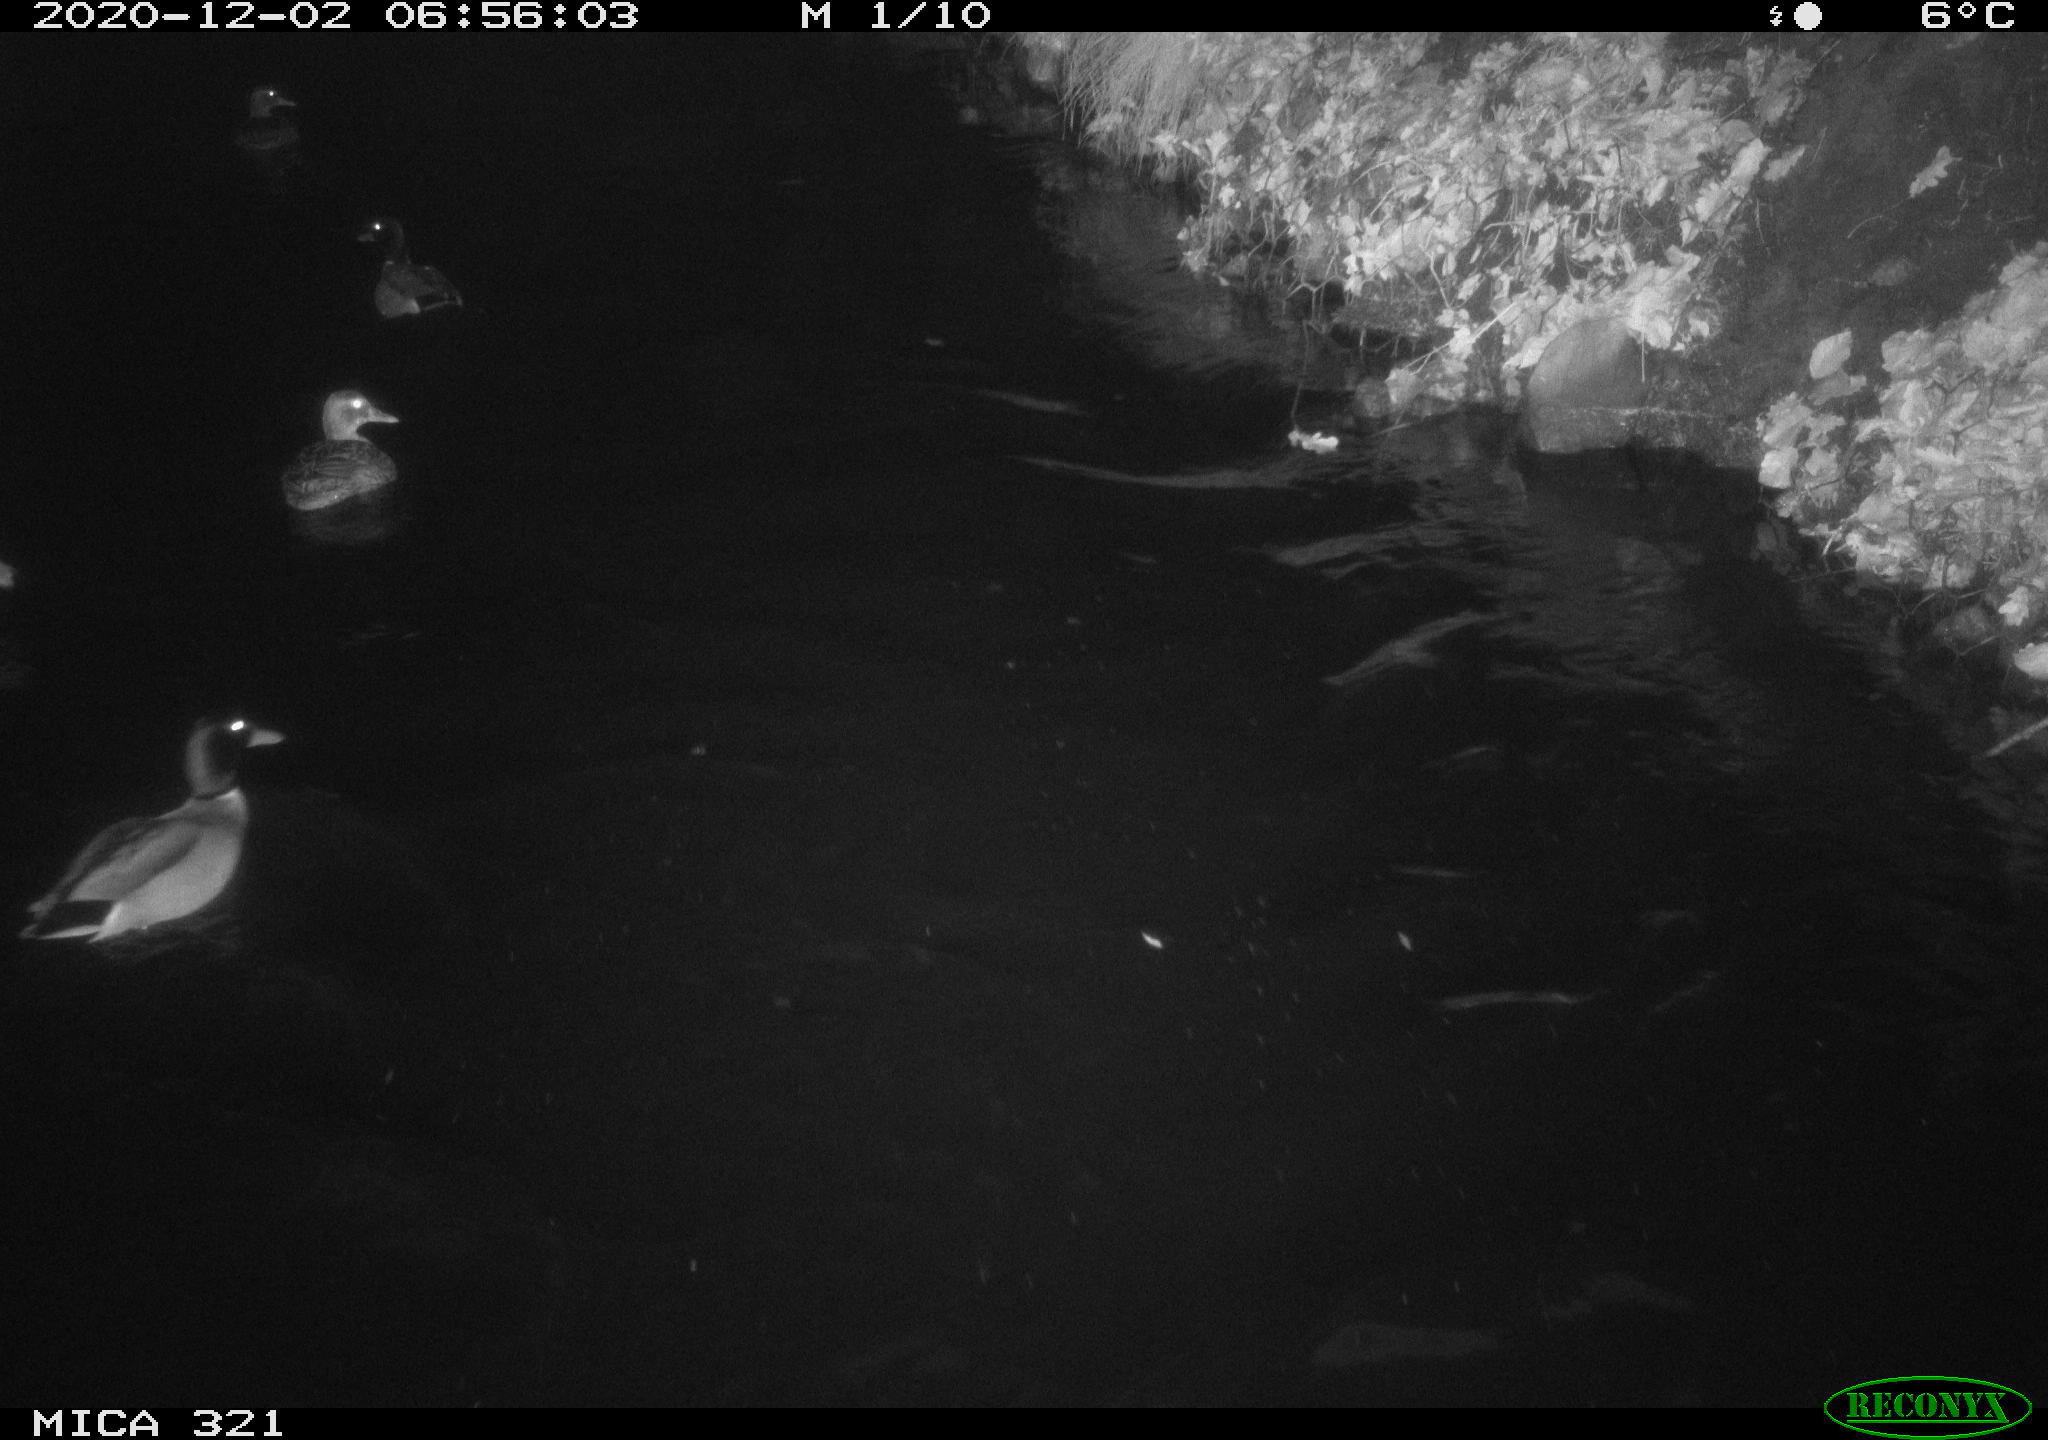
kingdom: Animalia
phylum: Chordata
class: Aves
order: Anseriformes
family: Anatidae
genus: Anas
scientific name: Anas platyrhynchos
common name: Mallard
